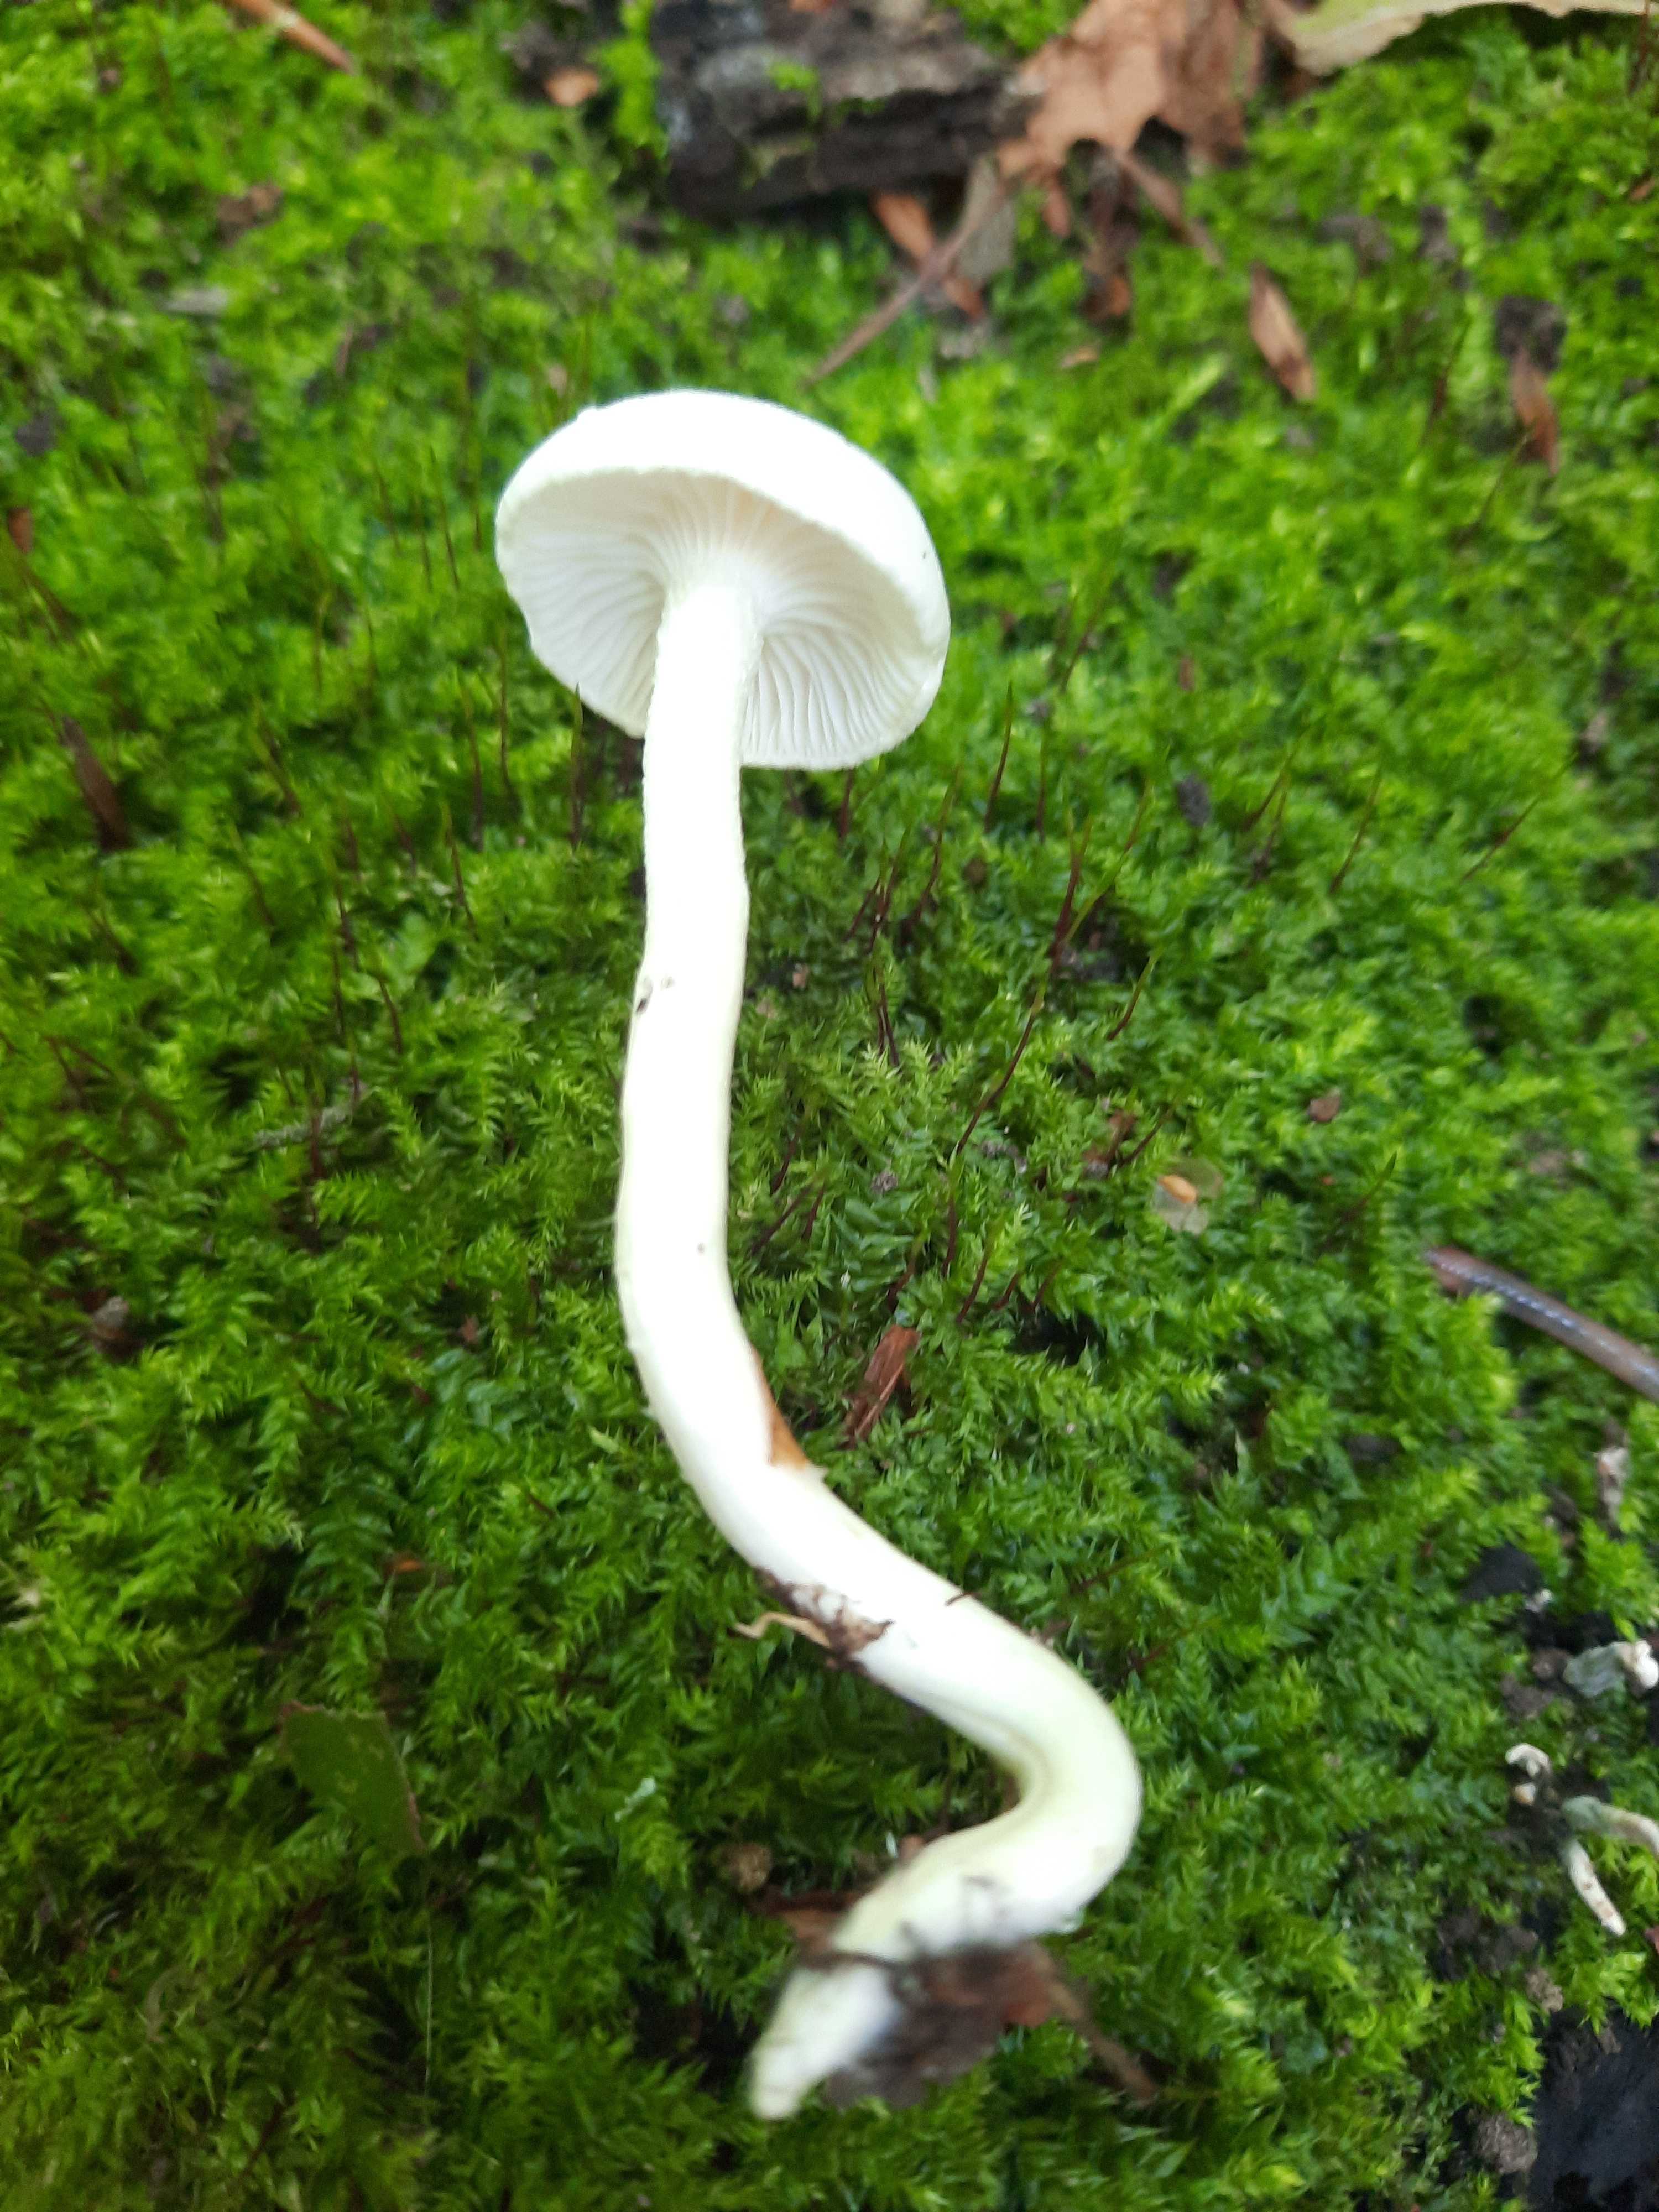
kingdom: Fungi
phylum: Basidiomycota
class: Agaricomycetes
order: Agaricales
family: Hygrophoraceae
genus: Hygrophorus
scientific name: Hygrophorus
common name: sneglehat
